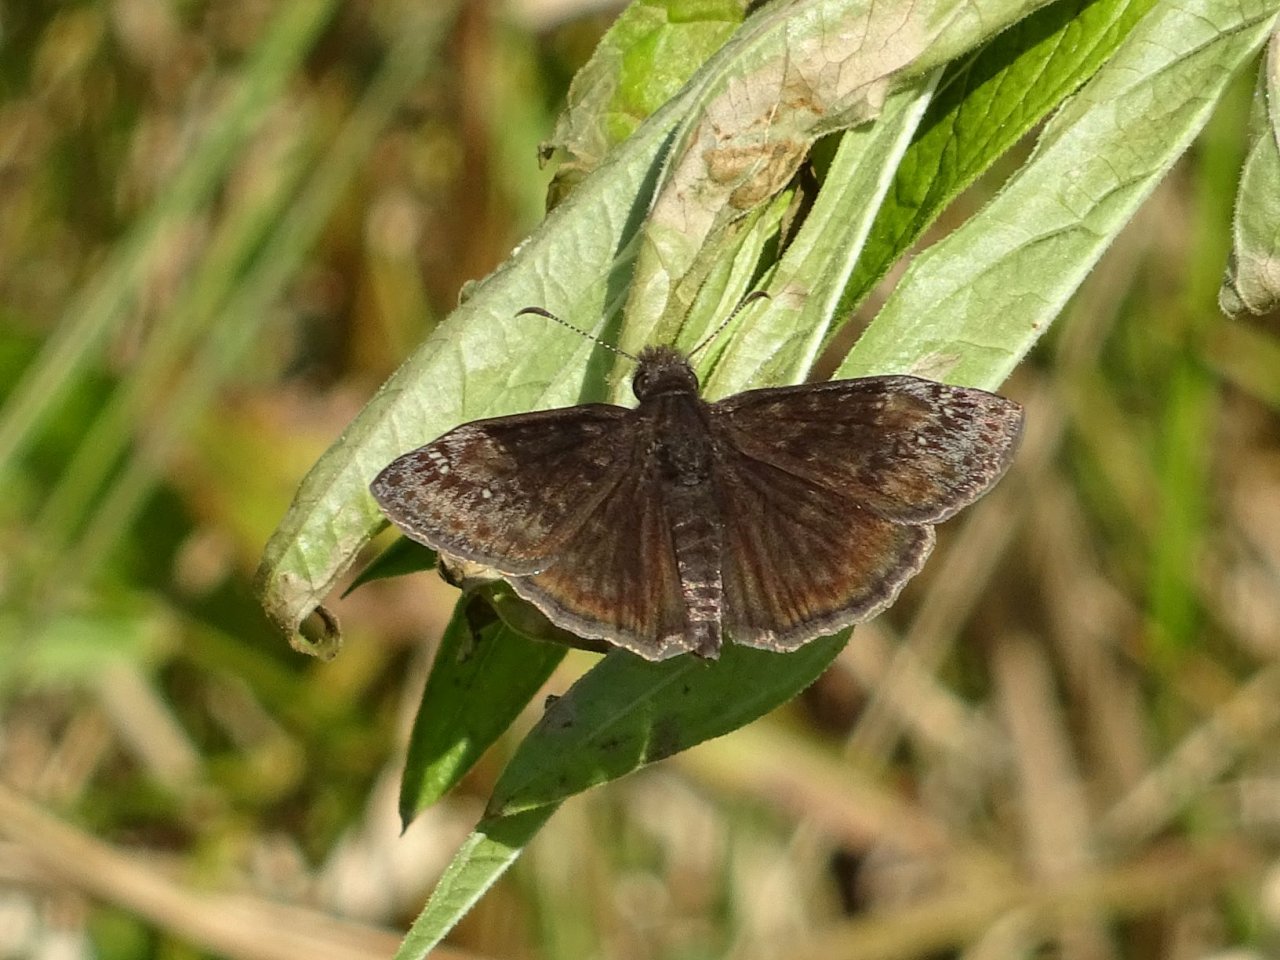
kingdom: Animalia
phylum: Arthropoda
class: Insecta
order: Lepidoptera
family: Hesperiidae
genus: Gesta
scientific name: Gesta
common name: Wild Indigo Duskywing
